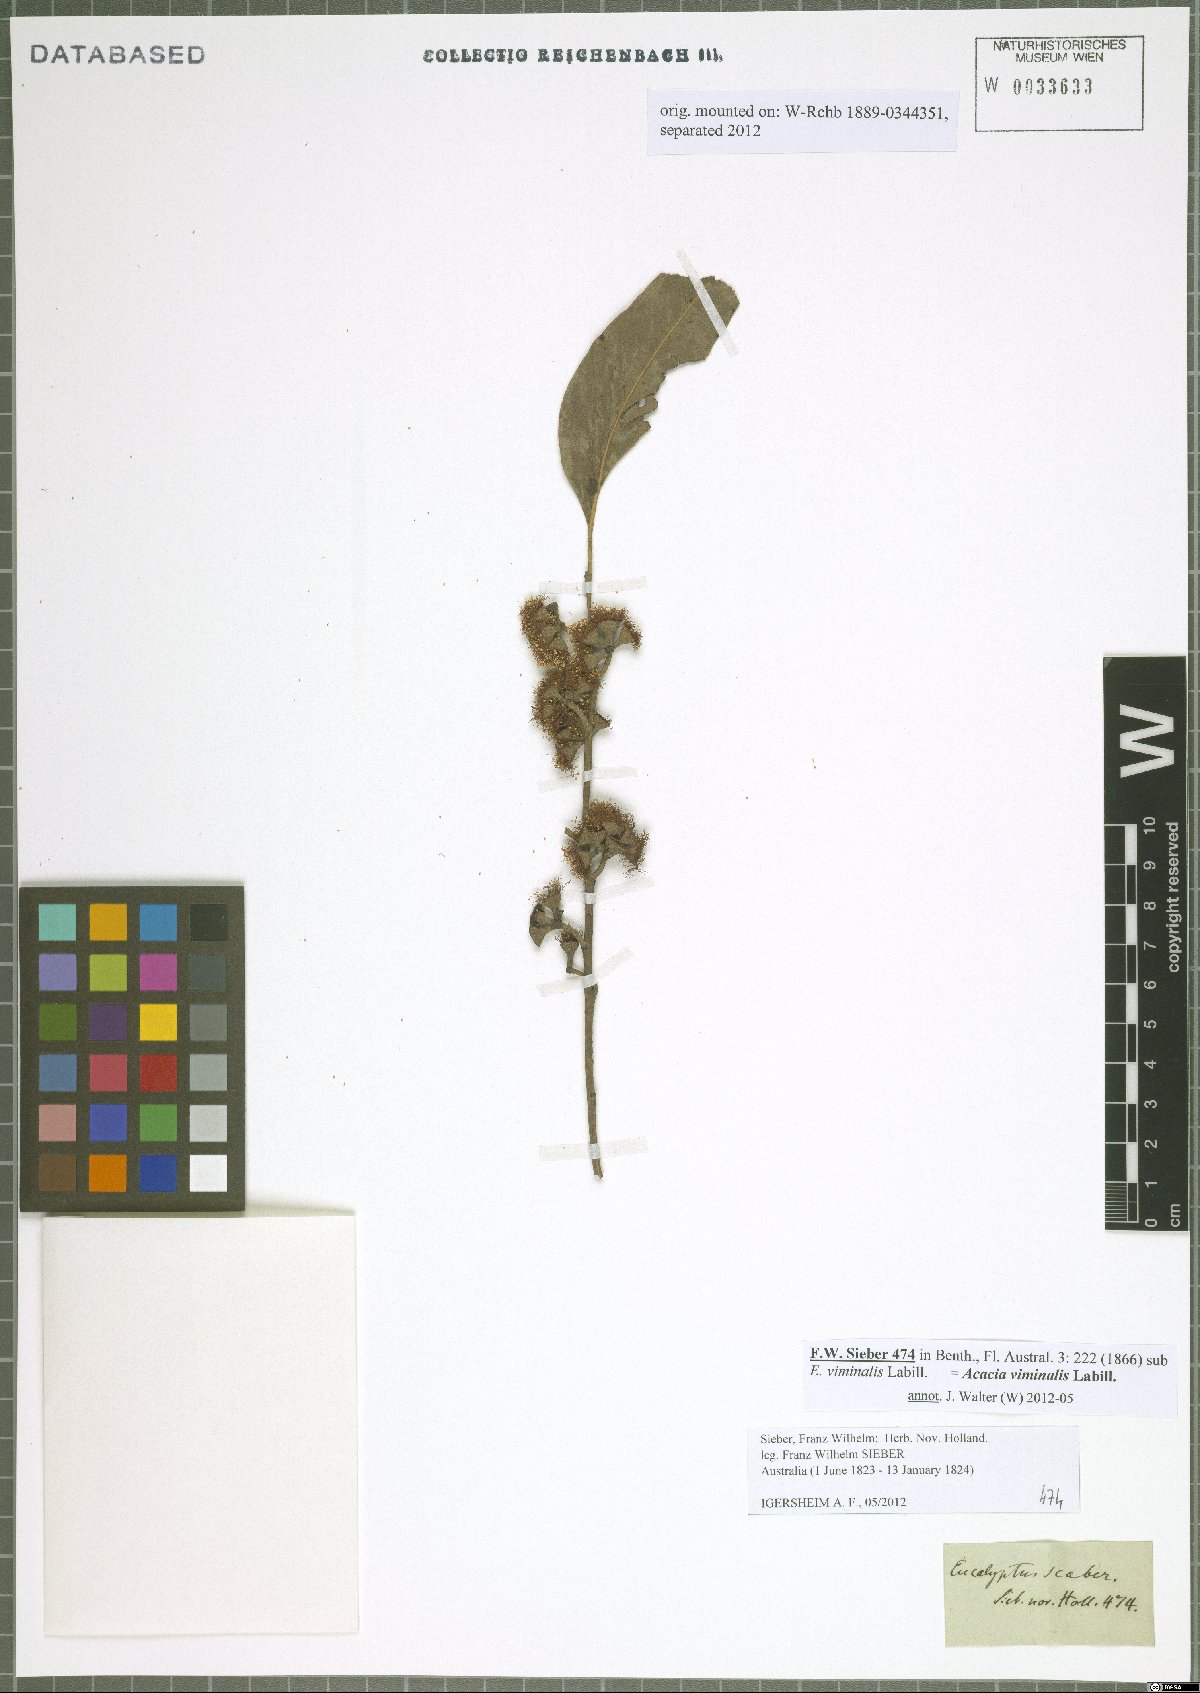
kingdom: Plantae
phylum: Tracheophyta
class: Magnoliopsida
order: Myrtales
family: Myrtaceae
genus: Eucalyptus
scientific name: Eucalyptus viminalis
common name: Manna gum
